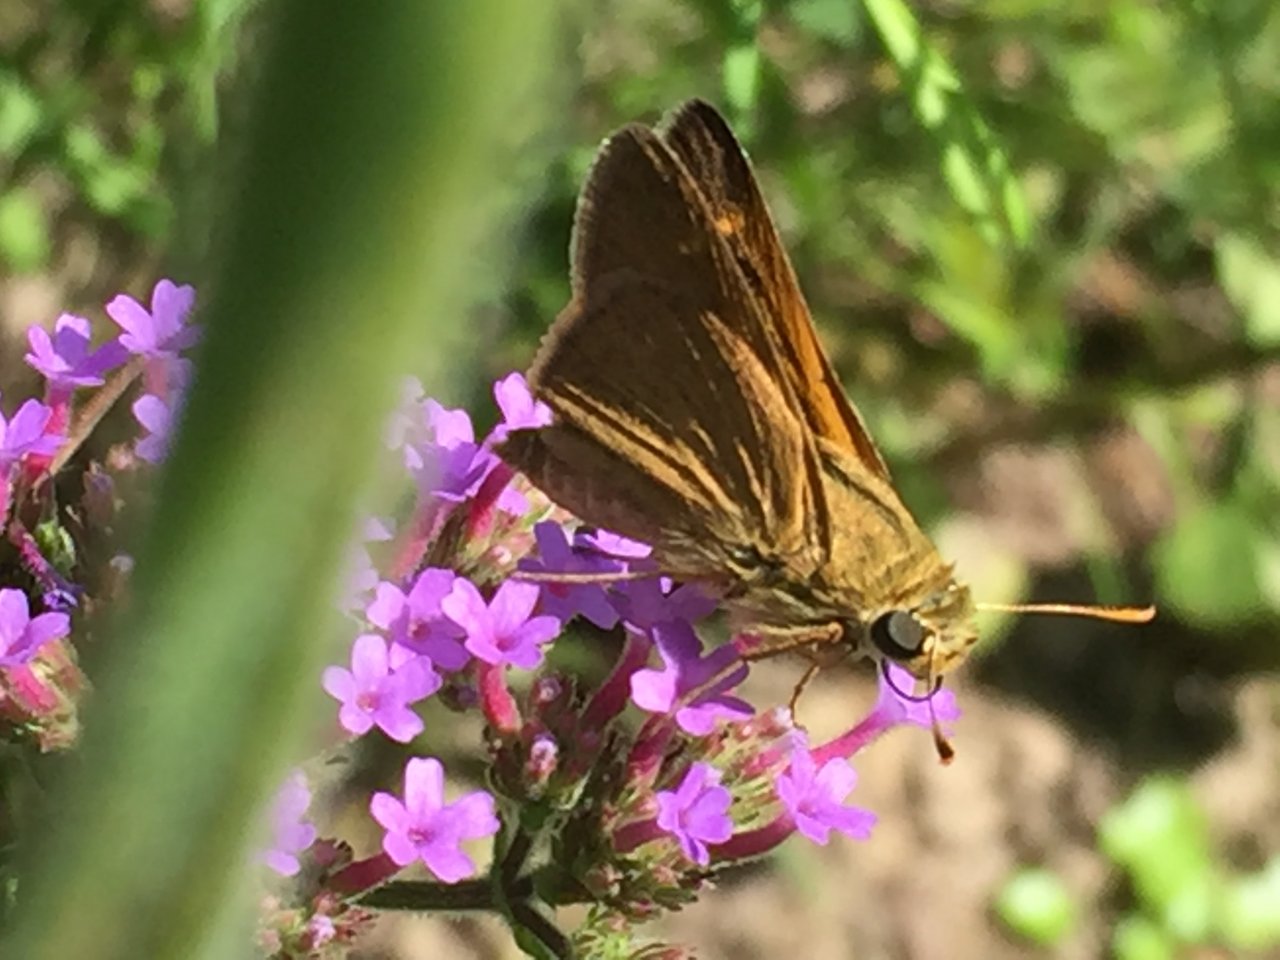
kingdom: Animalia
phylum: Arthropoda
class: Insecta
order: Lepidoptera
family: Hesperiidae
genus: Polites
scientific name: Polites themistocles
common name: Tawny-edged Skipper
